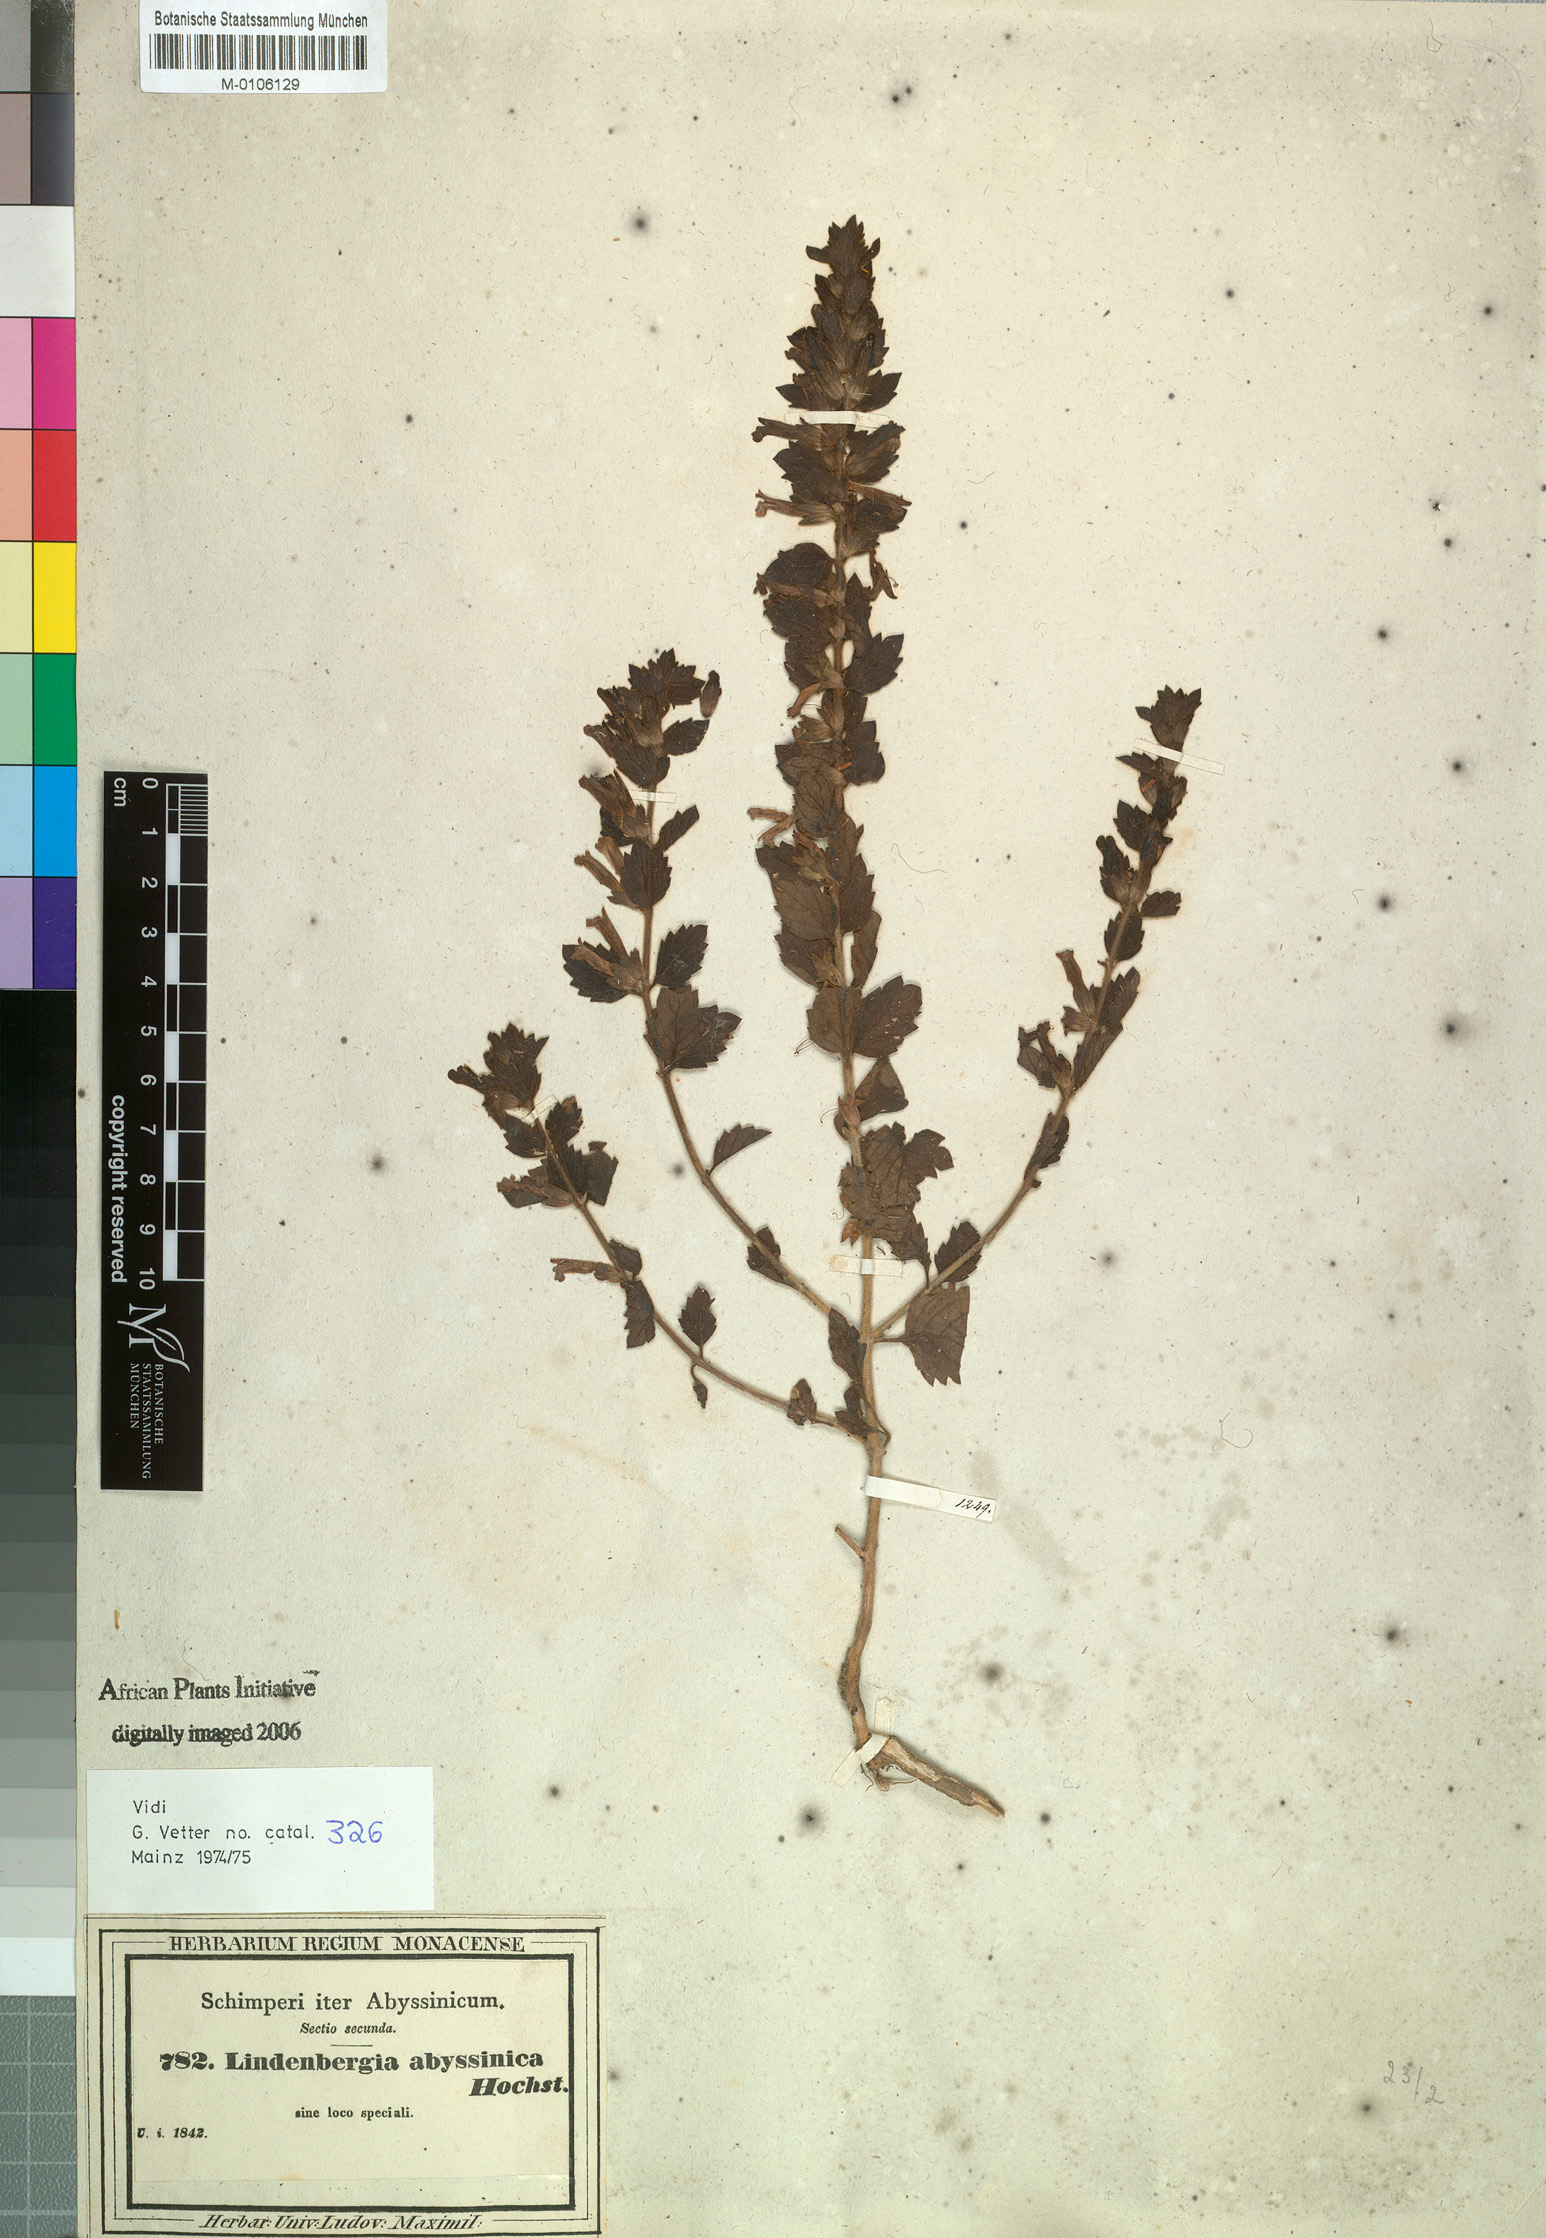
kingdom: Plantae
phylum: Tracheophyta
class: Magnoliopsida
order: Lamiales
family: Orobanchaceae
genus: Lindenbergia
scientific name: Lindenbergia indica
